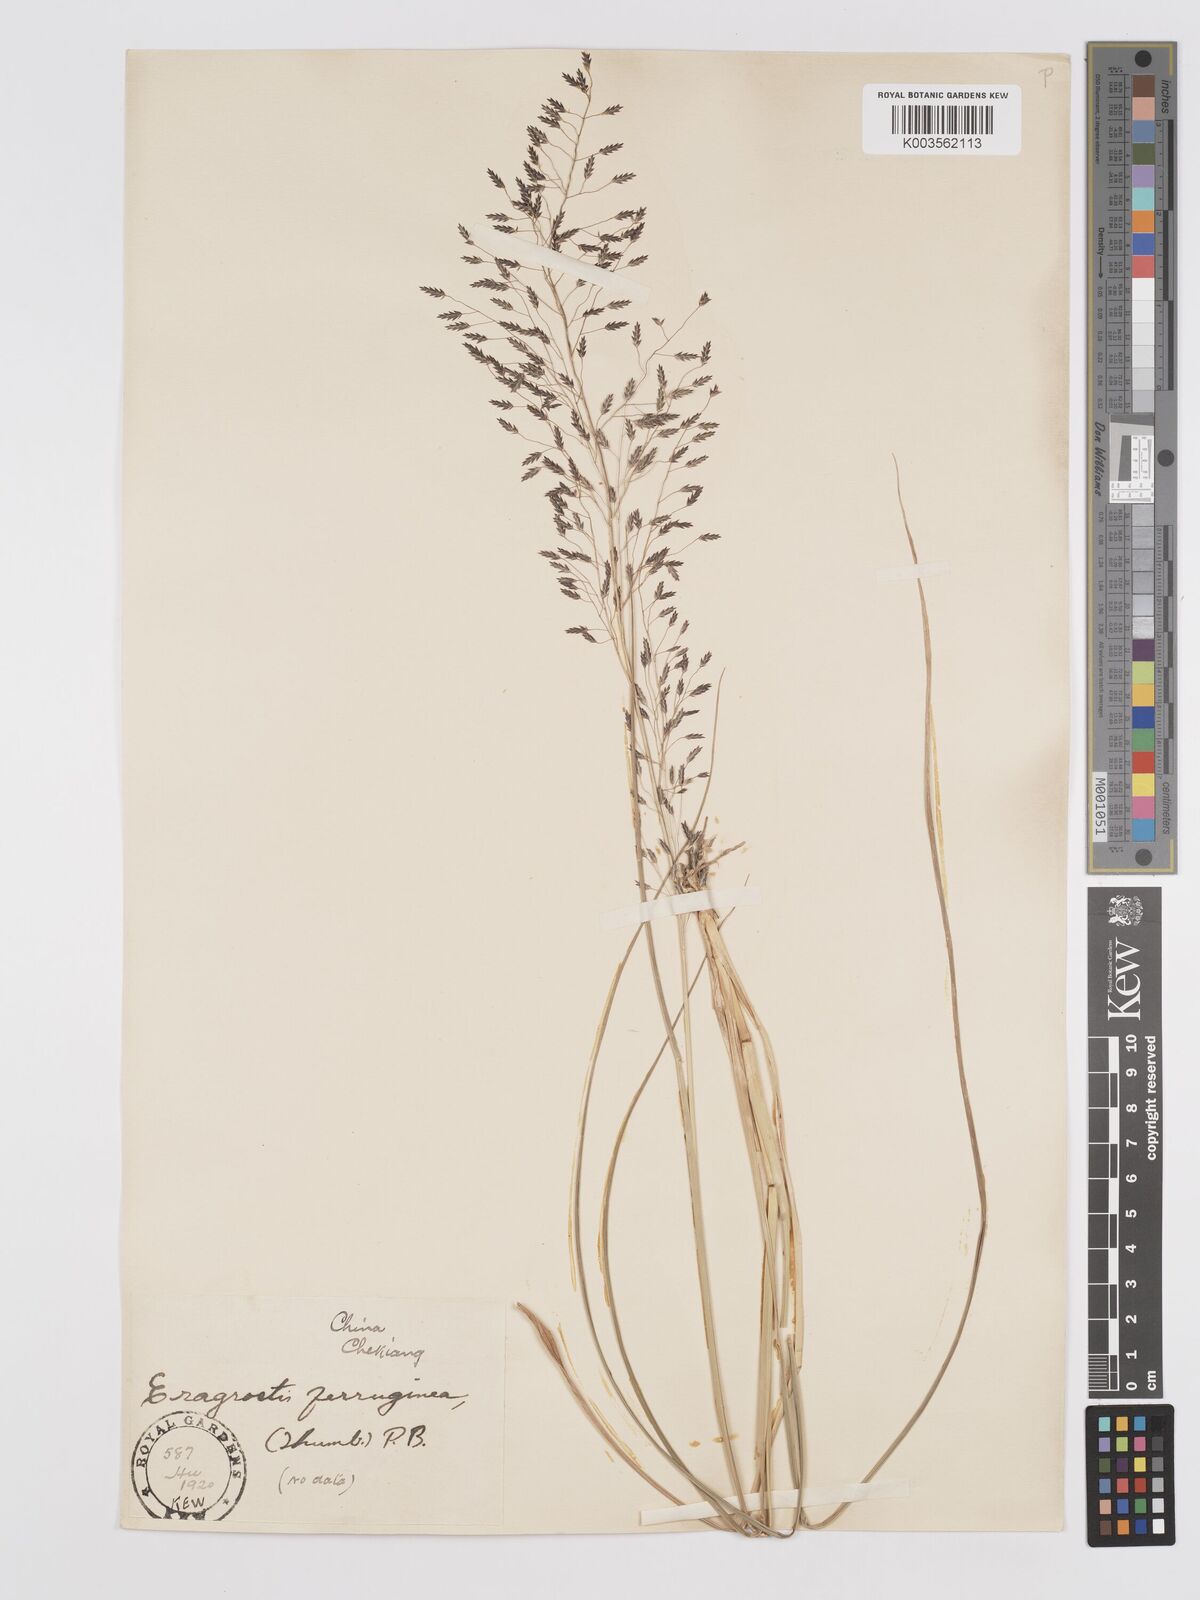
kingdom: Plantae
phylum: Tracheophyta
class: Liliopsida
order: Poales
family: Poaceae
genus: Eragrostis
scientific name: Eragrostis ferruginea
